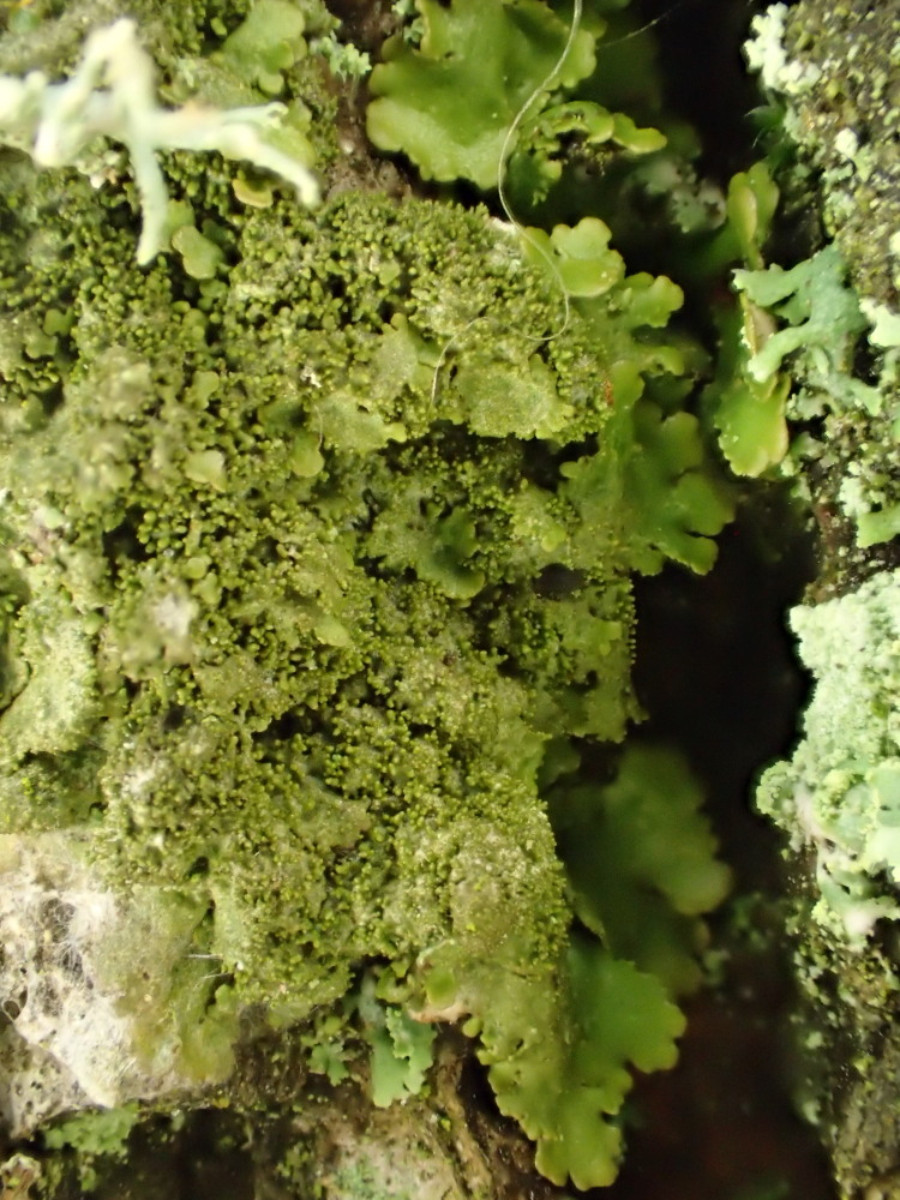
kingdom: Fungi
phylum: Ascomycota
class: Lecanoromycetes
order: Lecanorales
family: Parmeliaceae
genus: Melanelixia
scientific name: Melanelixia glabratula
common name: glinsende skållav
